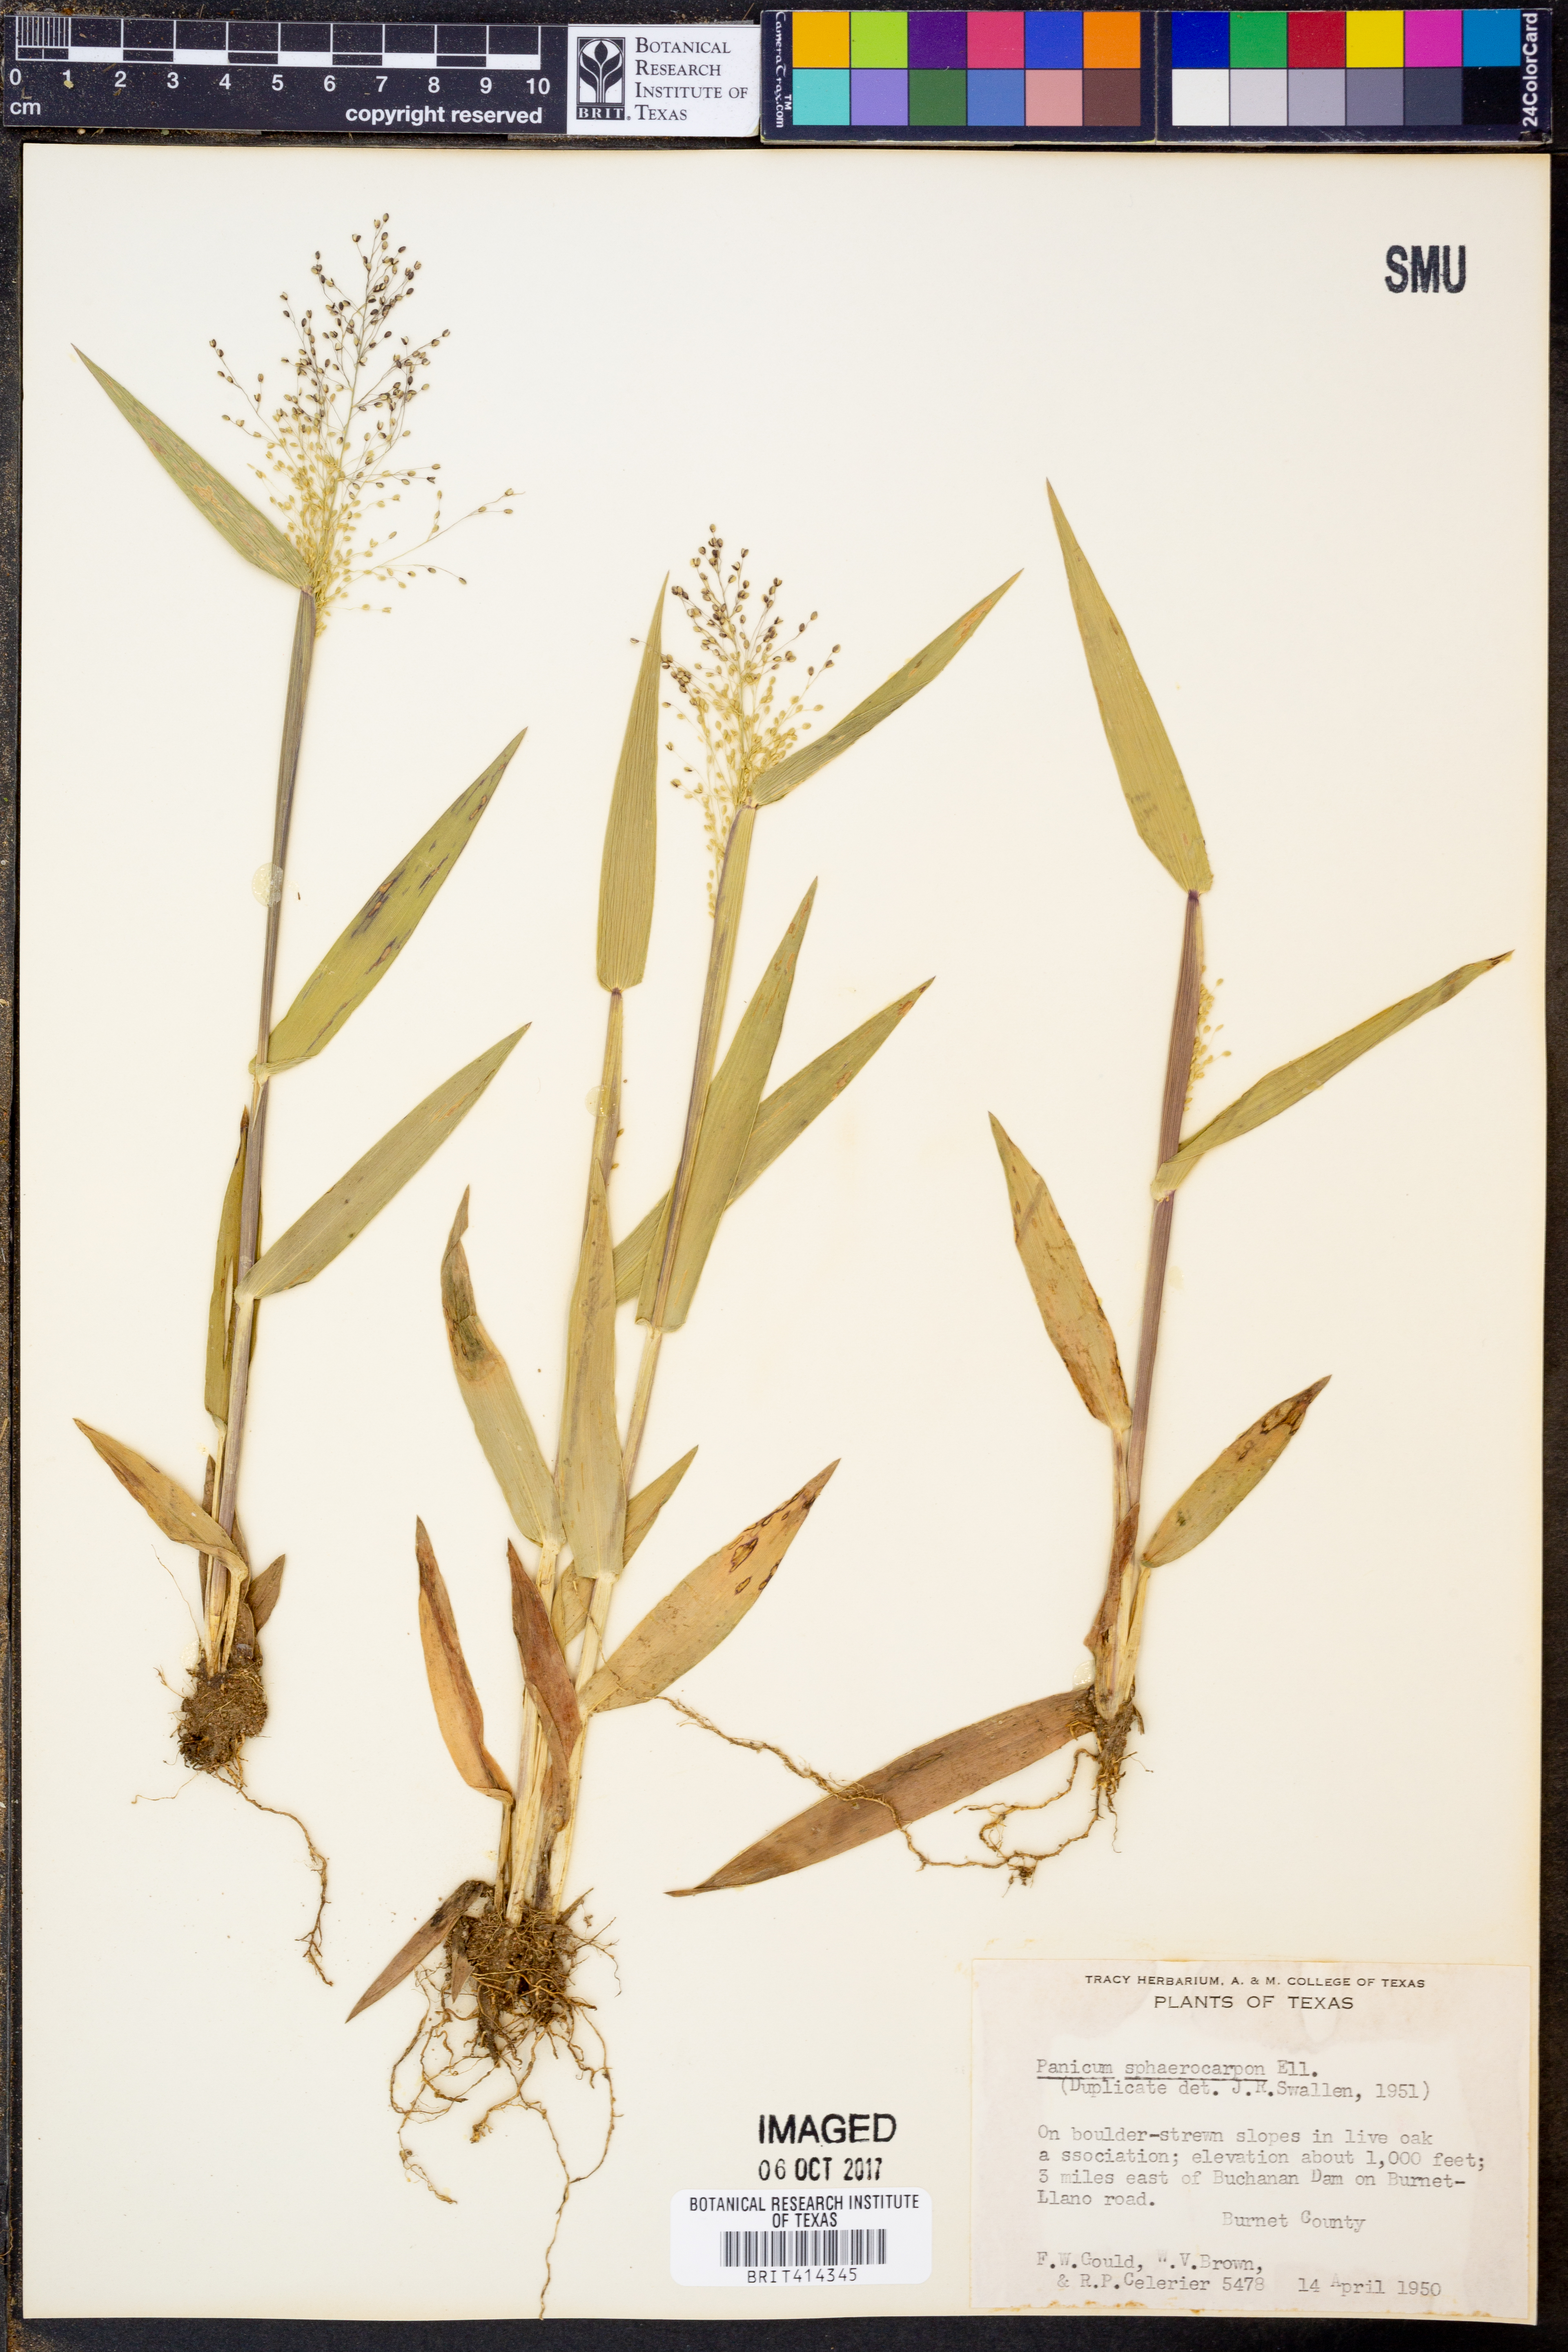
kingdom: Plantae
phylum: Tracheophyta
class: Liliopsida
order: Poales
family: Poaceae
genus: Dichanthelium
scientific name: Dichanthelium sphaerocarpon
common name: Round-fruited panicgrass
